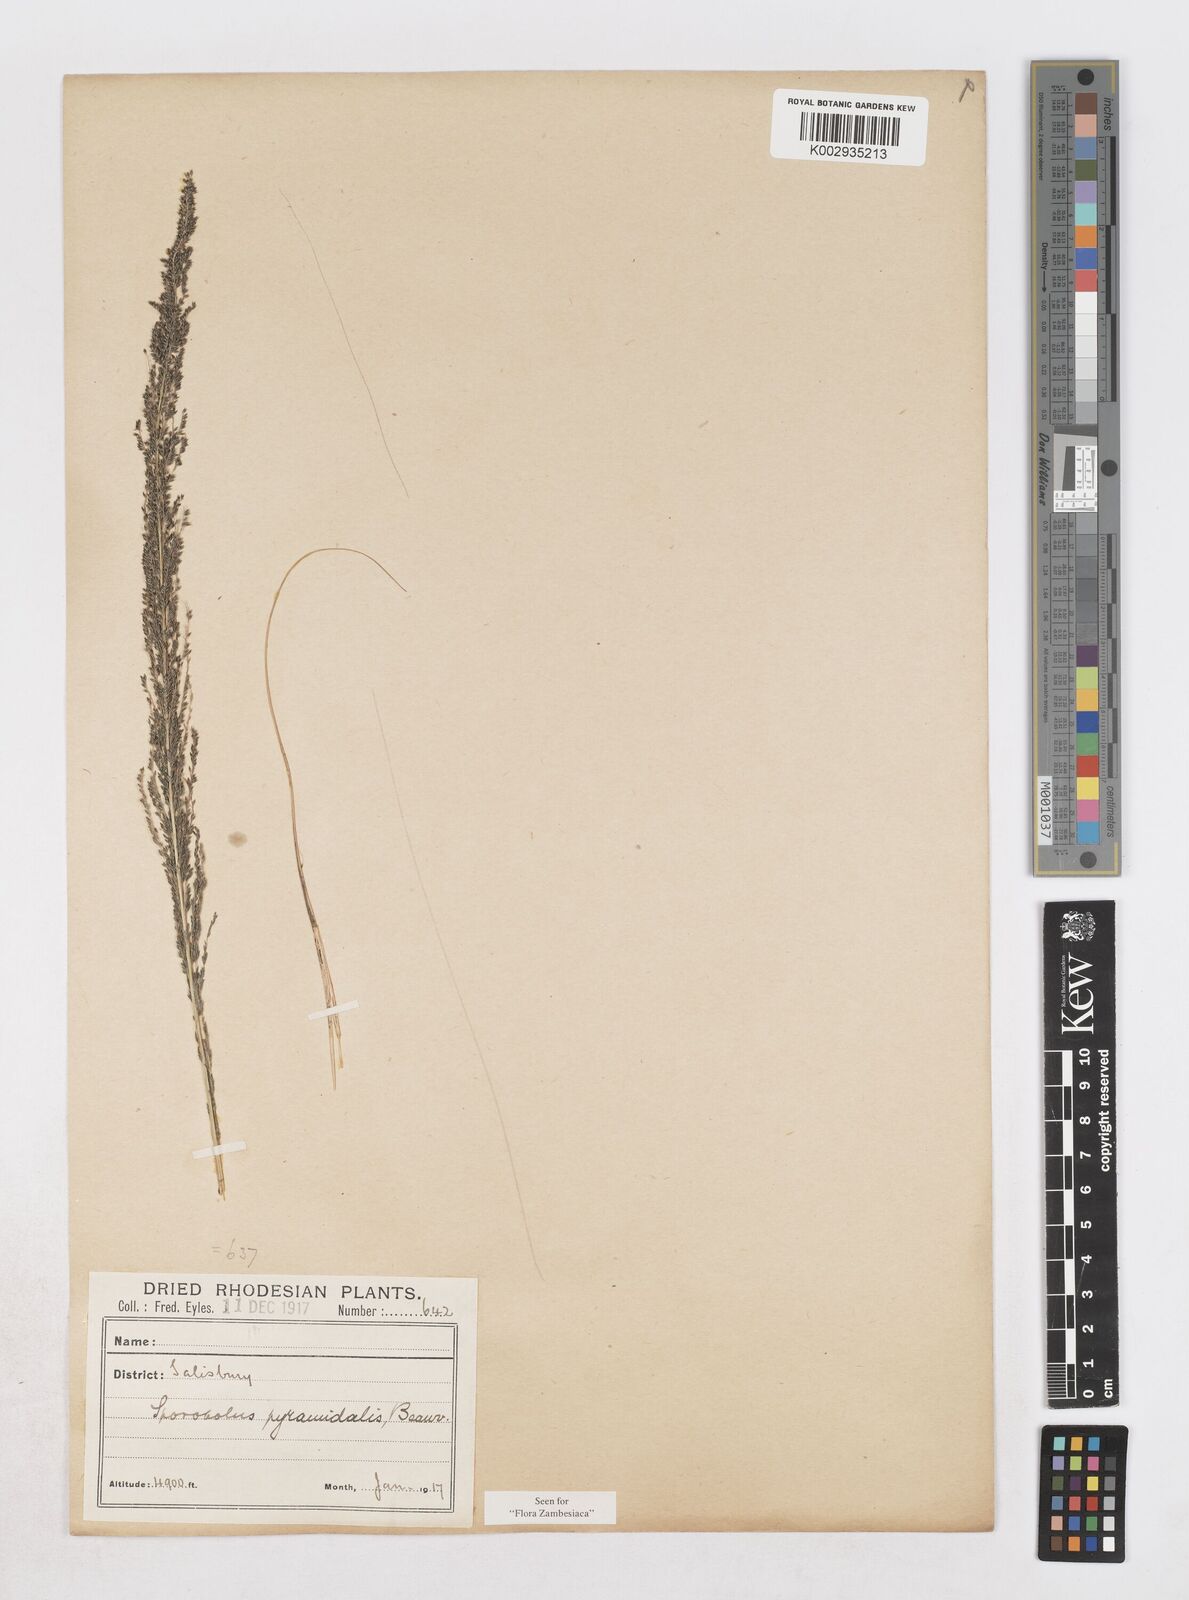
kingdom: Plantae
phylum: Tracheophyta
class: Liliopsida
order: Poales
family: Poaceae
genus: Sporobolus
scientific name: Sporobolus pyramidalis
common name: West indian dropseed
